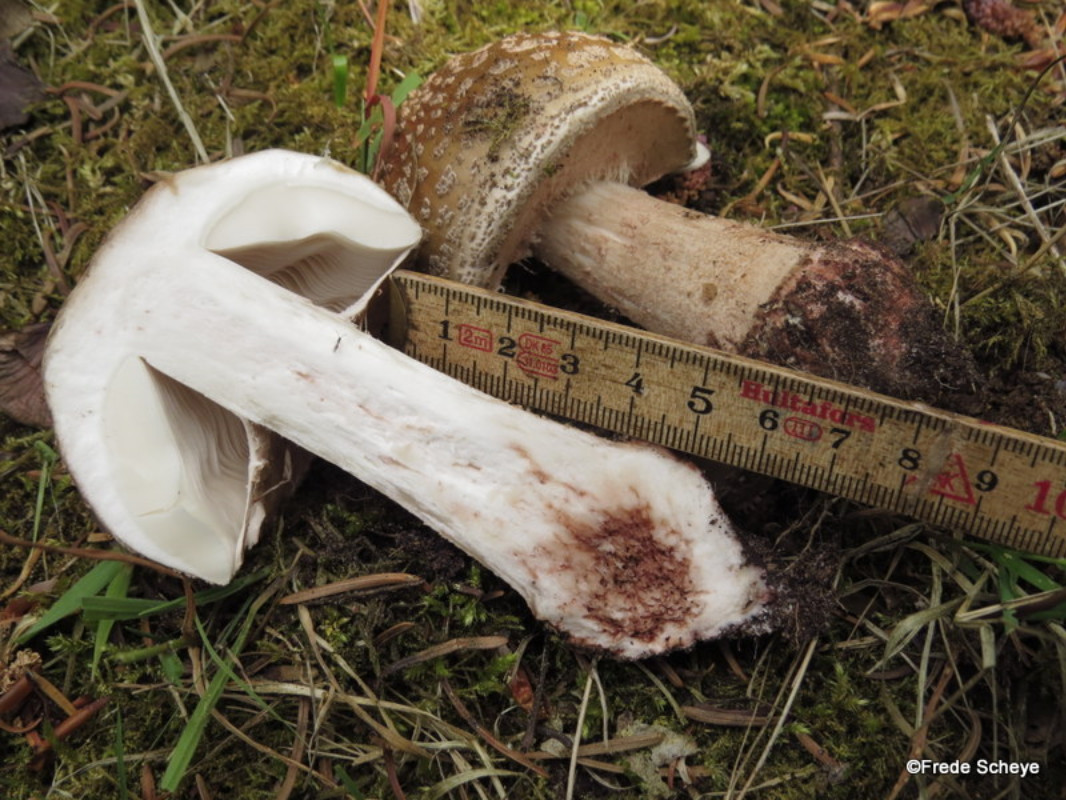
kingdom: Fungi
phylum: Basidiomycota
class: Agaricomycetes
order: Agaricales
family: Amanitaceae
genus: Amanita
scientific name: Amanita rubescens
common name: rødmende fluesvamp
